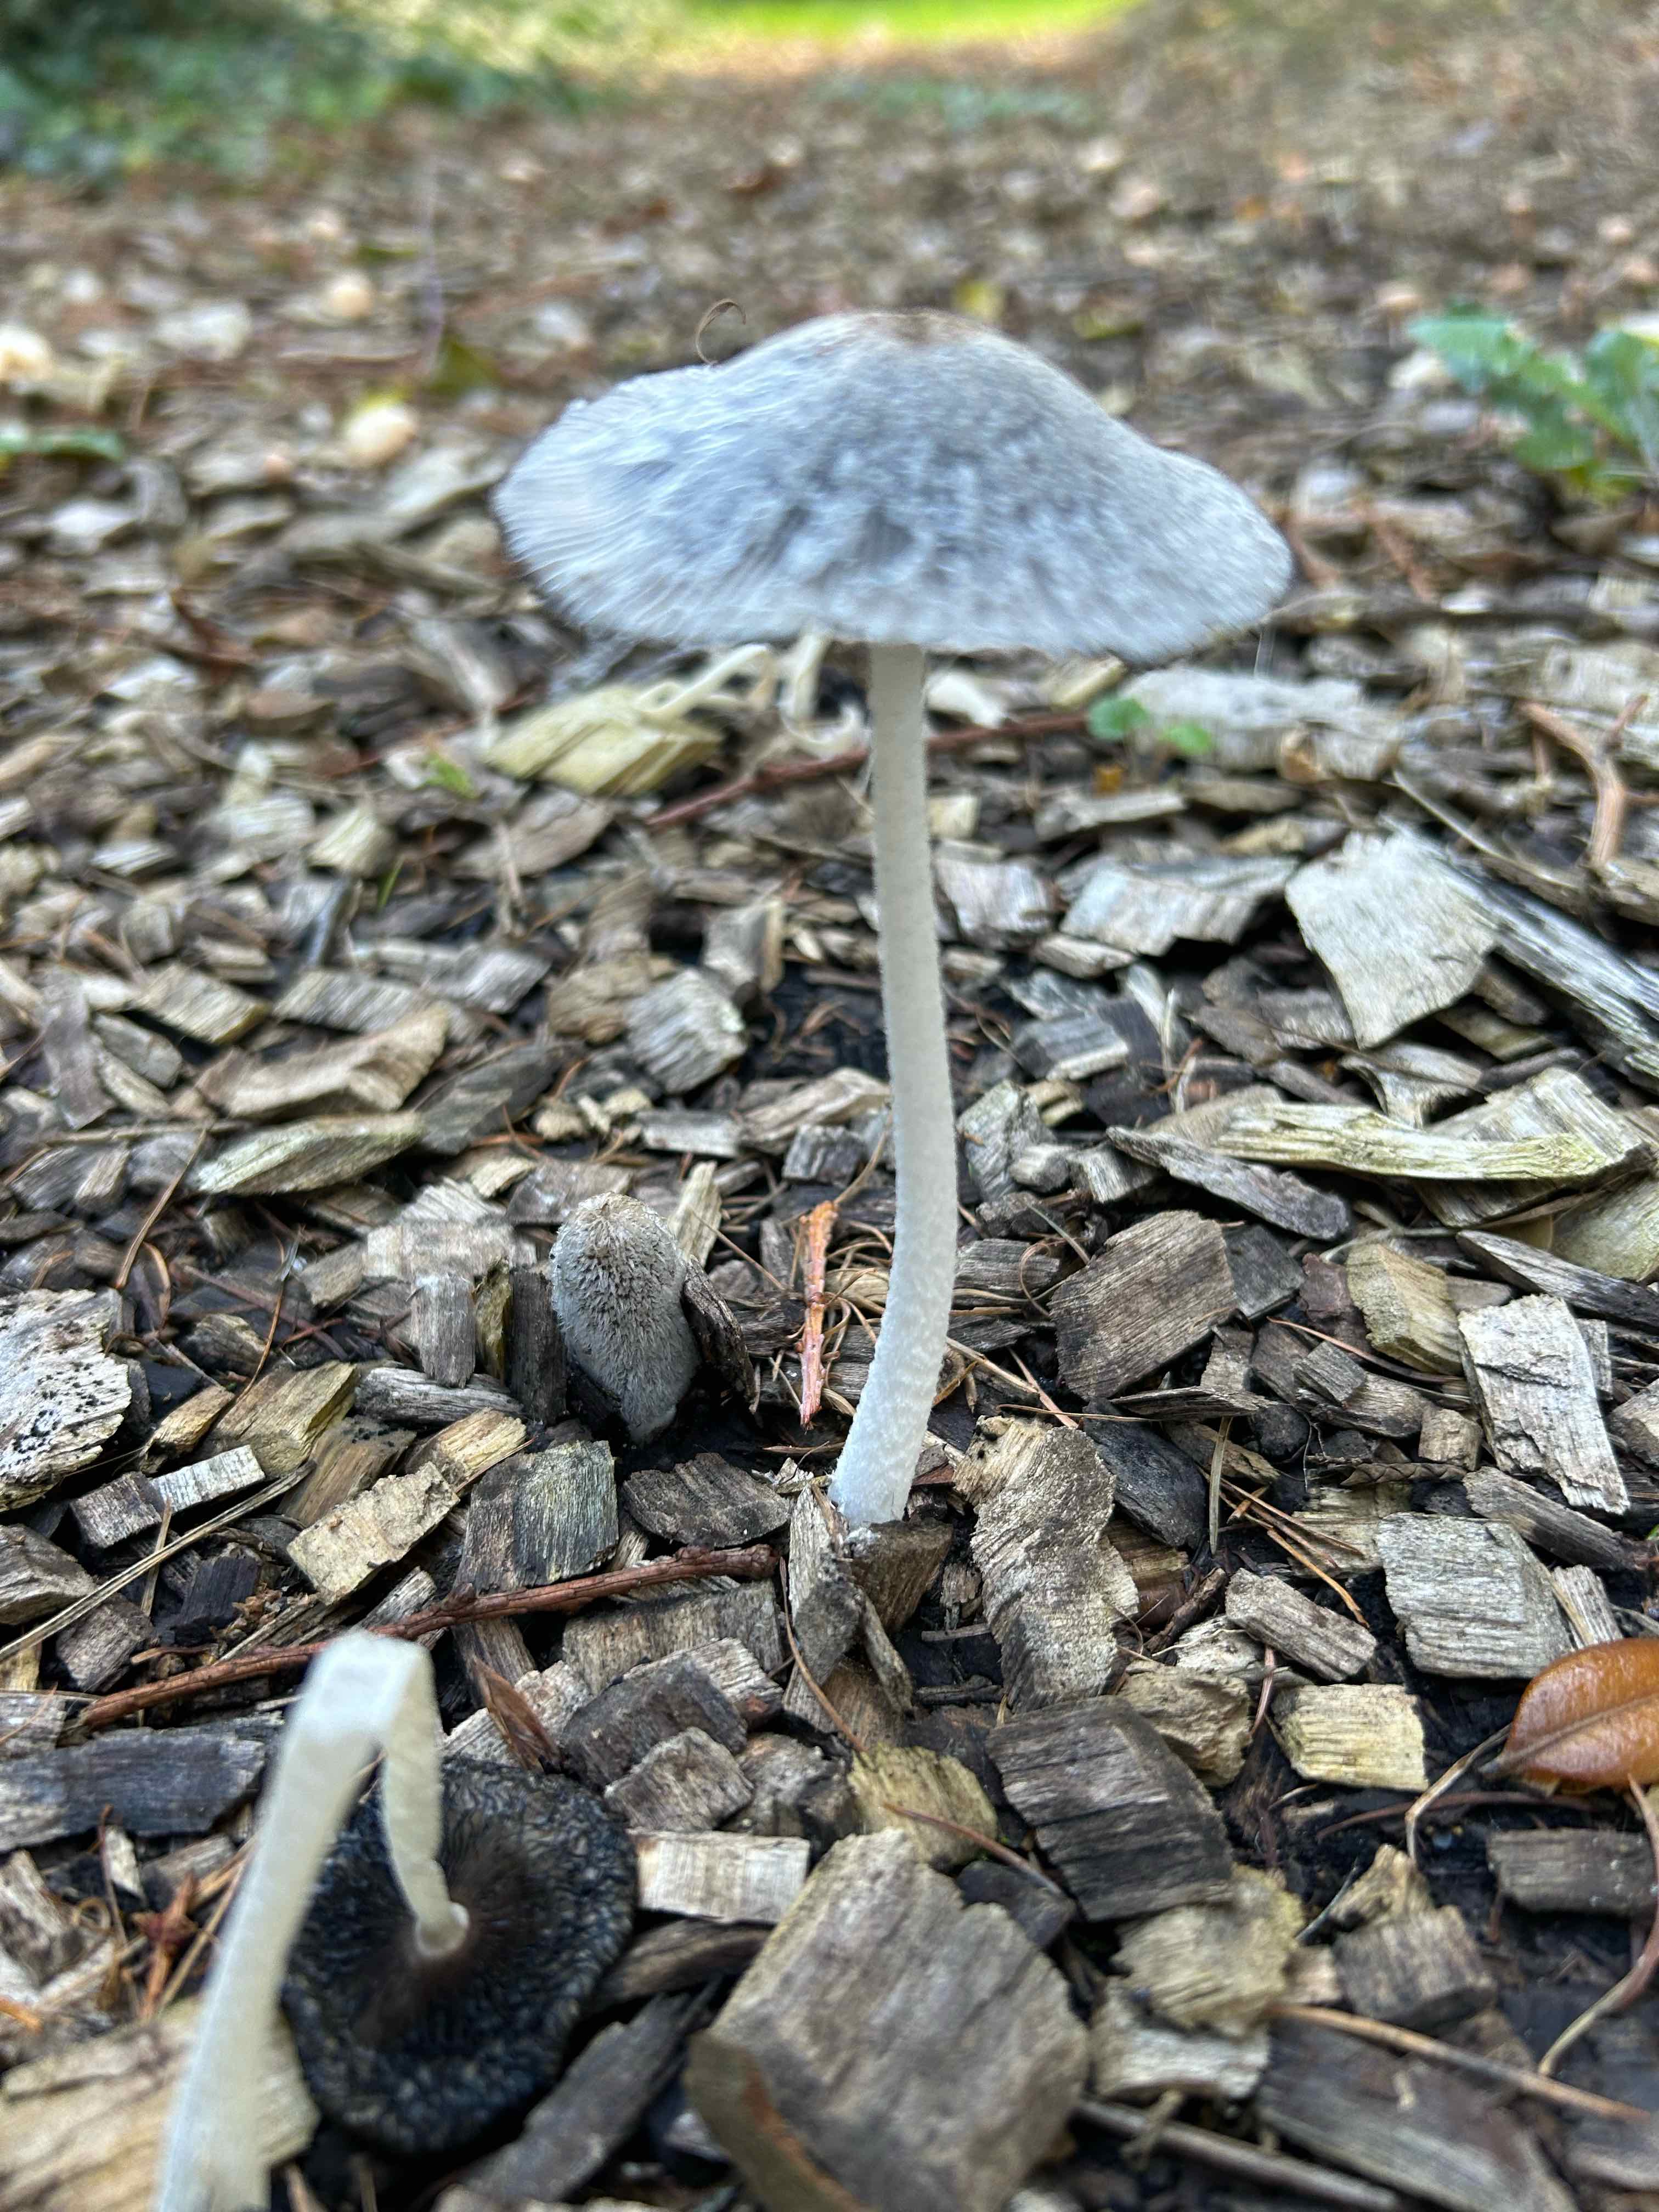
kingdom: Fungi
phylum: Basidiomycota
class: Agaricomycetes
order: Agaricales
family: Psathyrellaceae
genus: Coprinopsis
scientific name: Coprinopsis lagopus
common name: dunstokket blækhat
